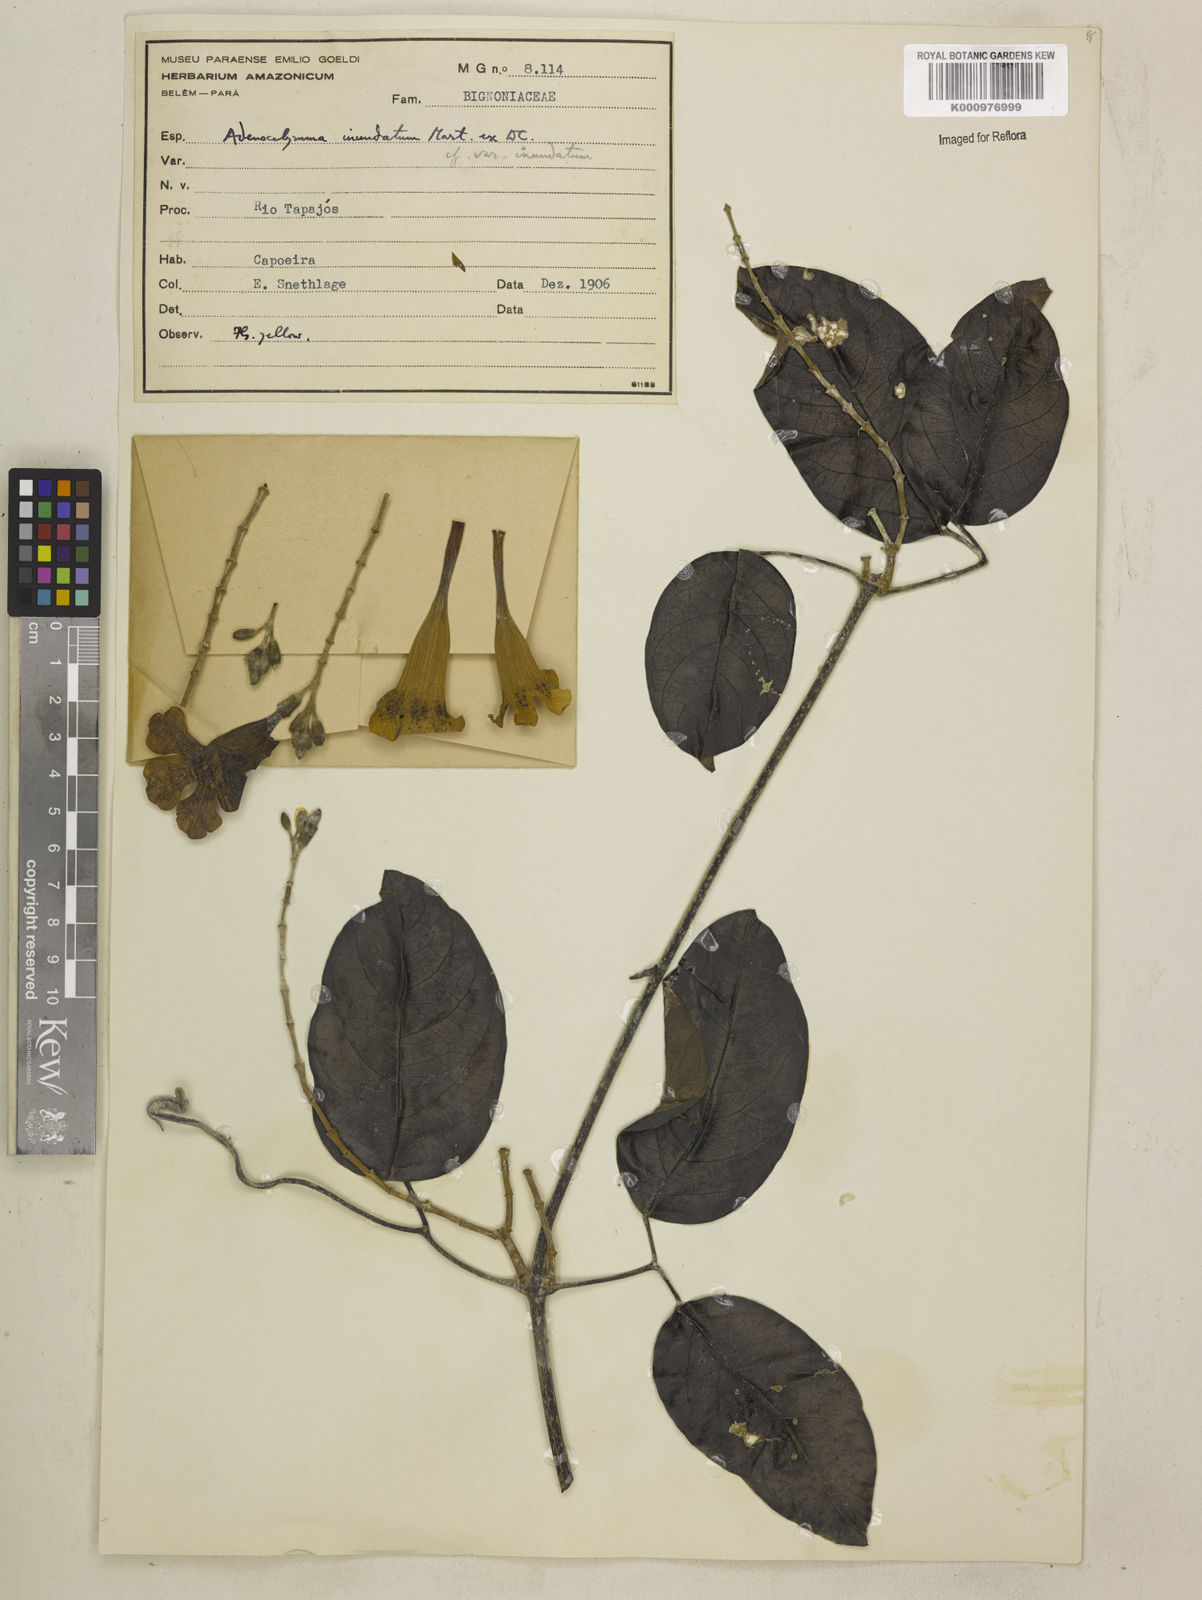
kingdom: Plantae
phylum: Tracheophyta
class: Magnoliopsida
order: Lamiales
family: Bignoniaceae
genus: Adenocalymma
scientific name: Adenocalymma inundatum
